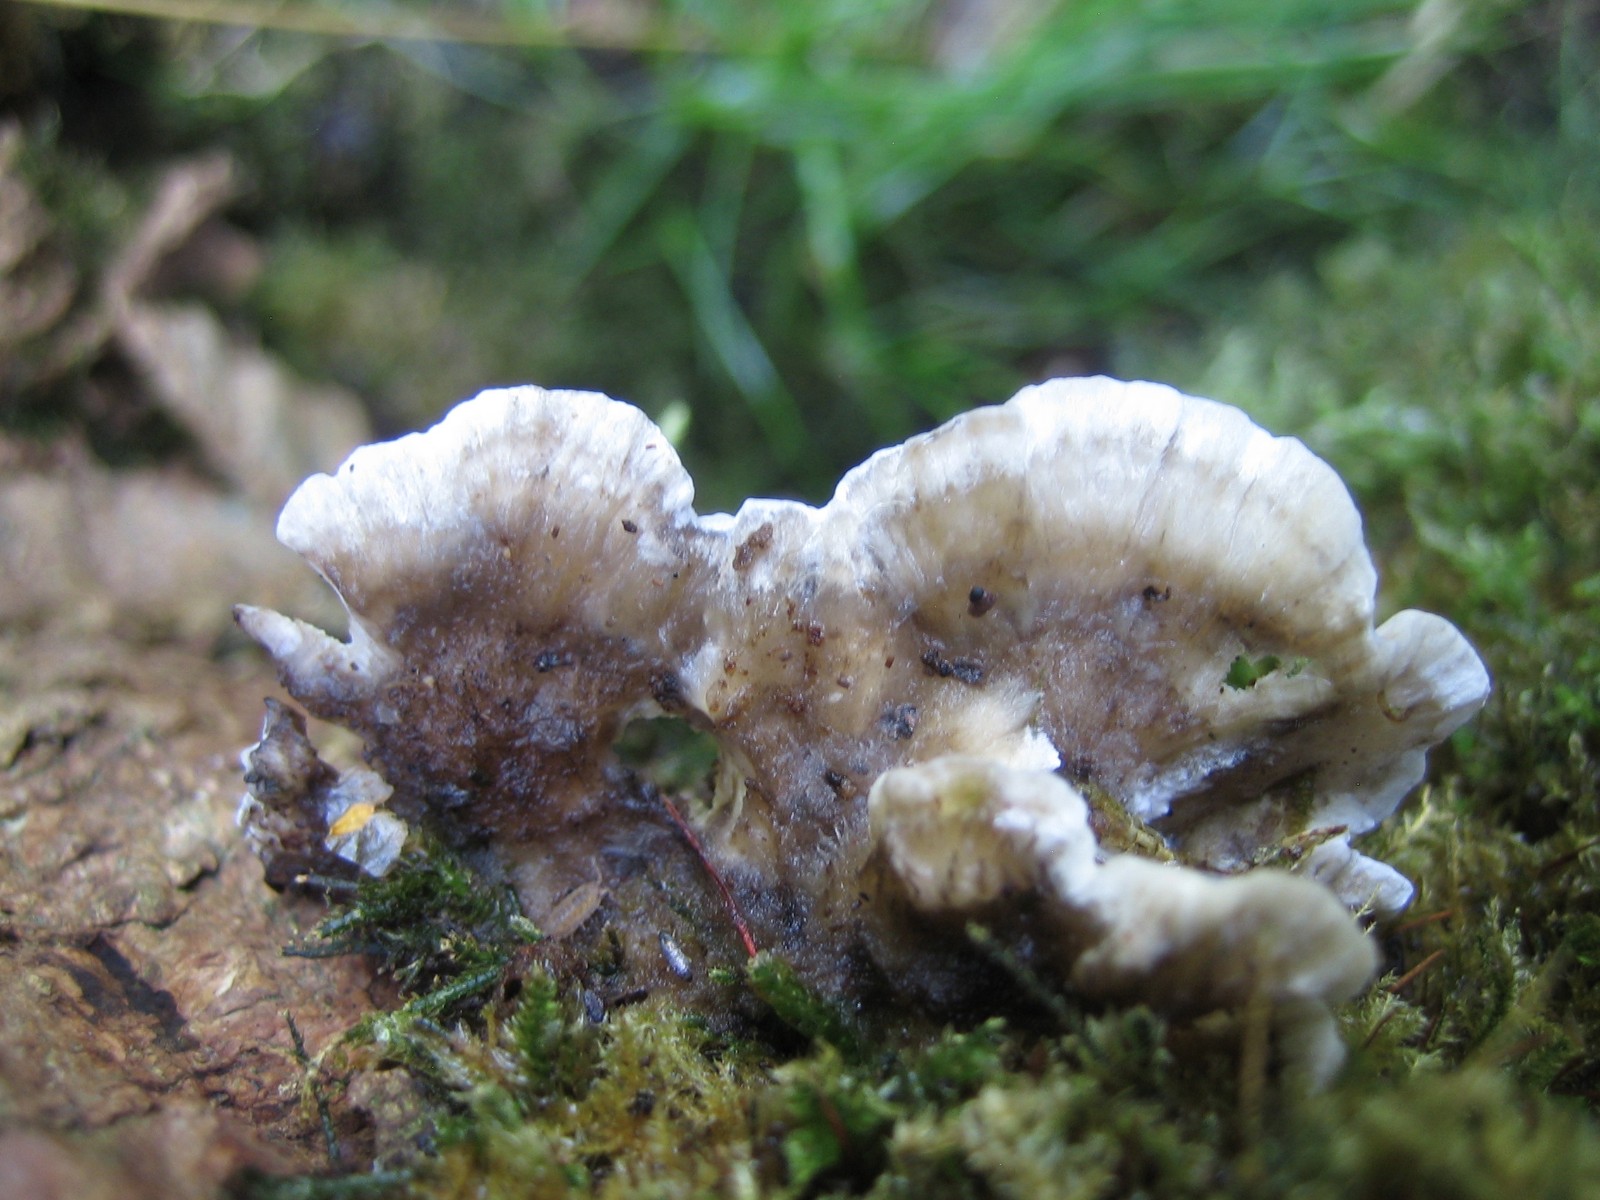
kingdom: Fungi
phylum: Basidiomycota
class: Agaricomycetes
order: Polyporales
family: Phanerochaetaceae
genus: Bjerkandera
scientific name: Bjerkandera adusta
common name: sveden sodporesvamp
